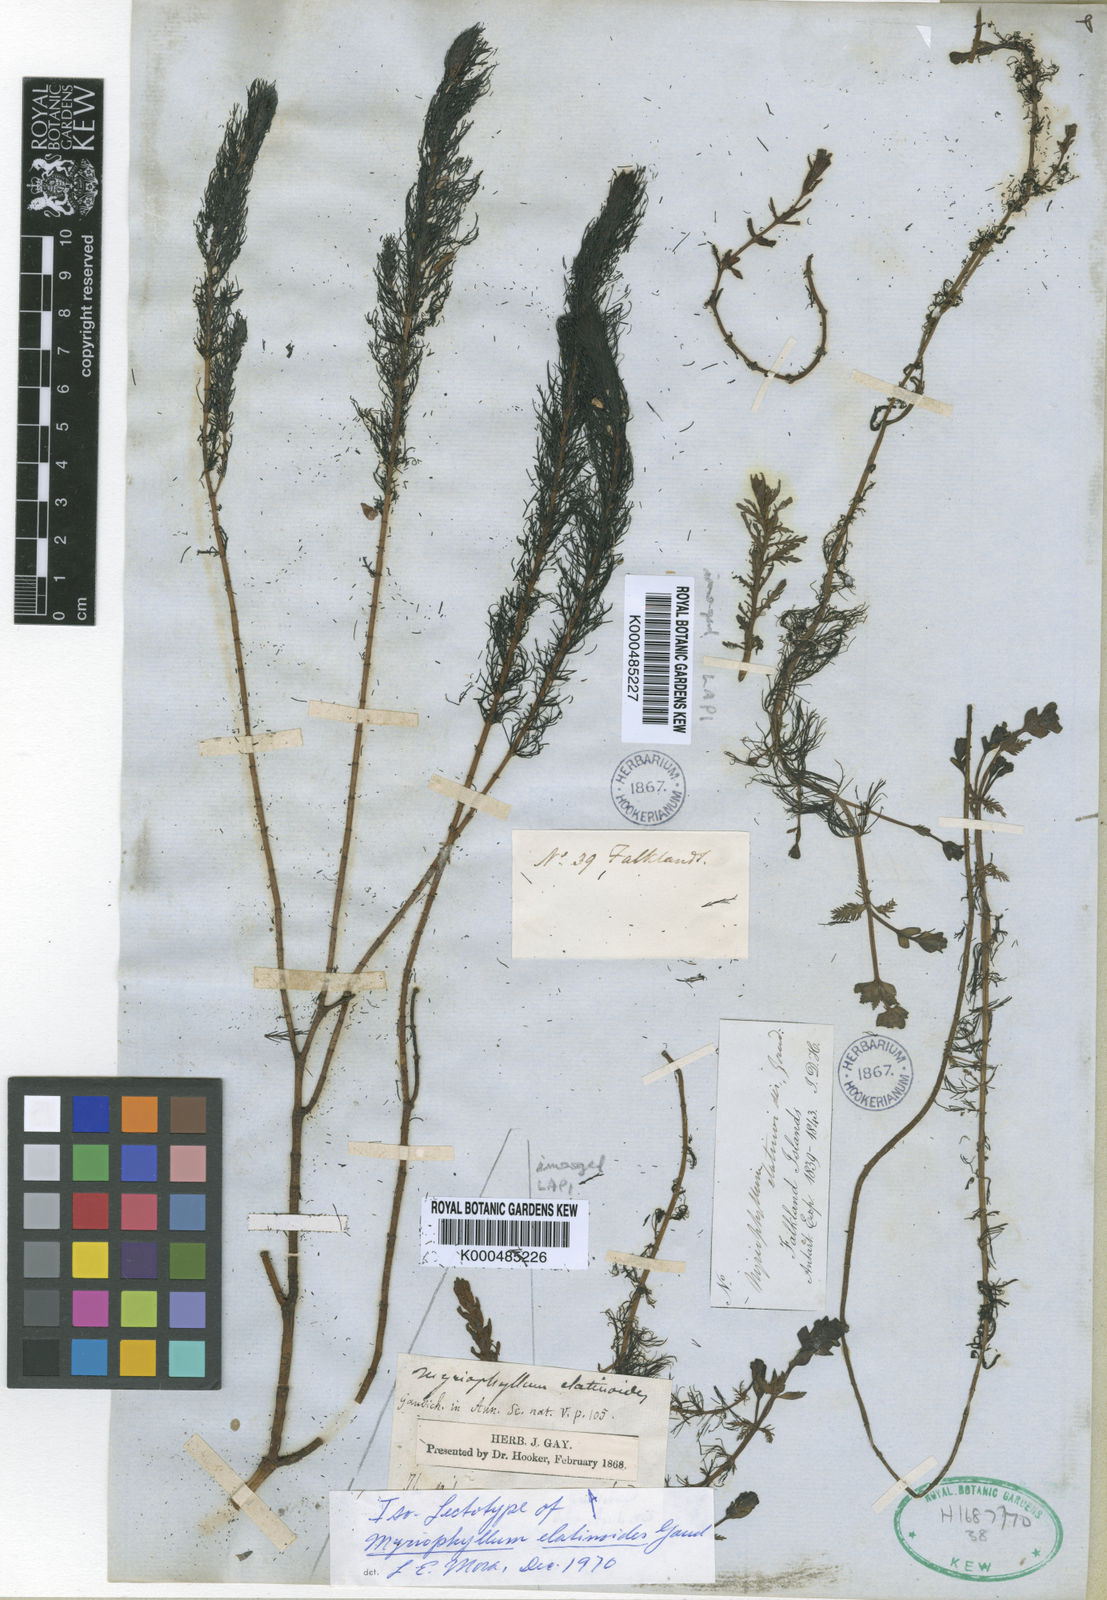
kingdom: Plantae
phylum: Tracheophyta
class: Magnoliopsida
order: Saxifragales
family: Haloragaceae
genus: Myriophyllum
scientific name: Myriophyllum quitense
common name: Andean water milfoil
